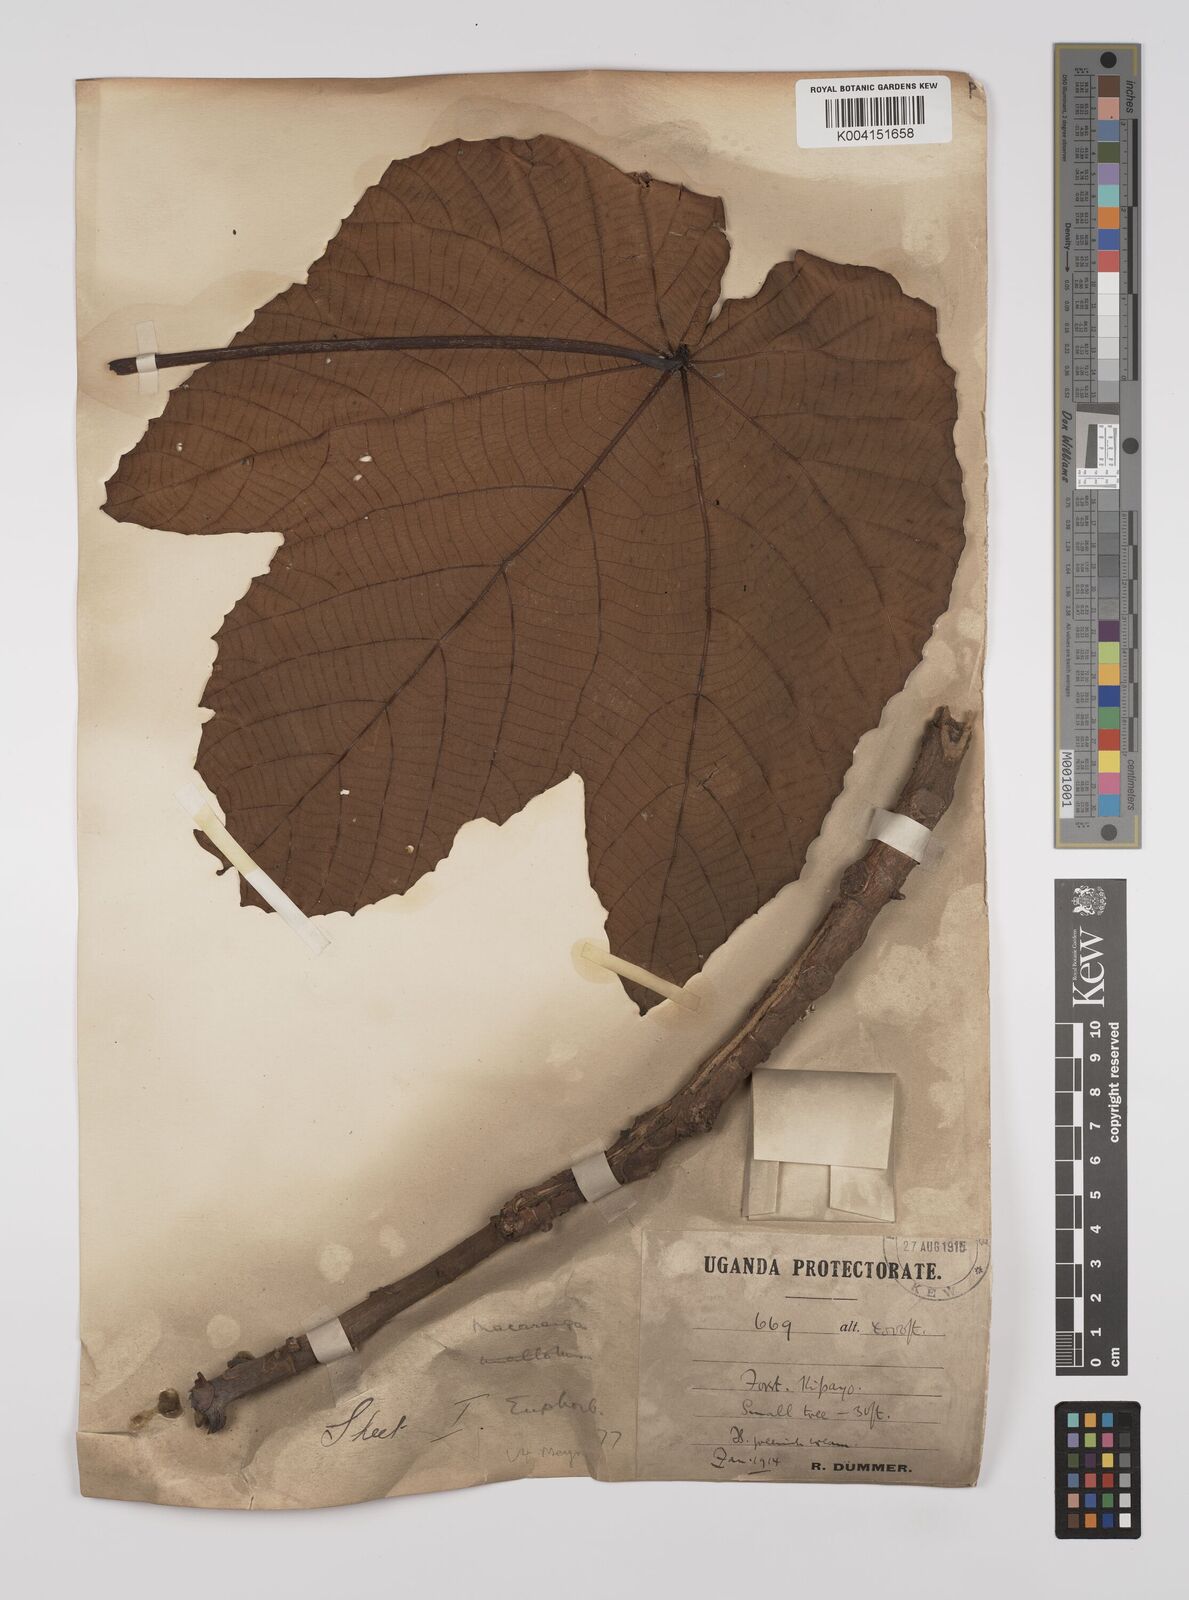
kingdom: Plantae
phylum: Tracheophyta
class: Magnoliopsida
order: Malpighiales
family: Euphorbiaceae
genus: Macaranga
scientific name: Macaranga schweinfurthii
